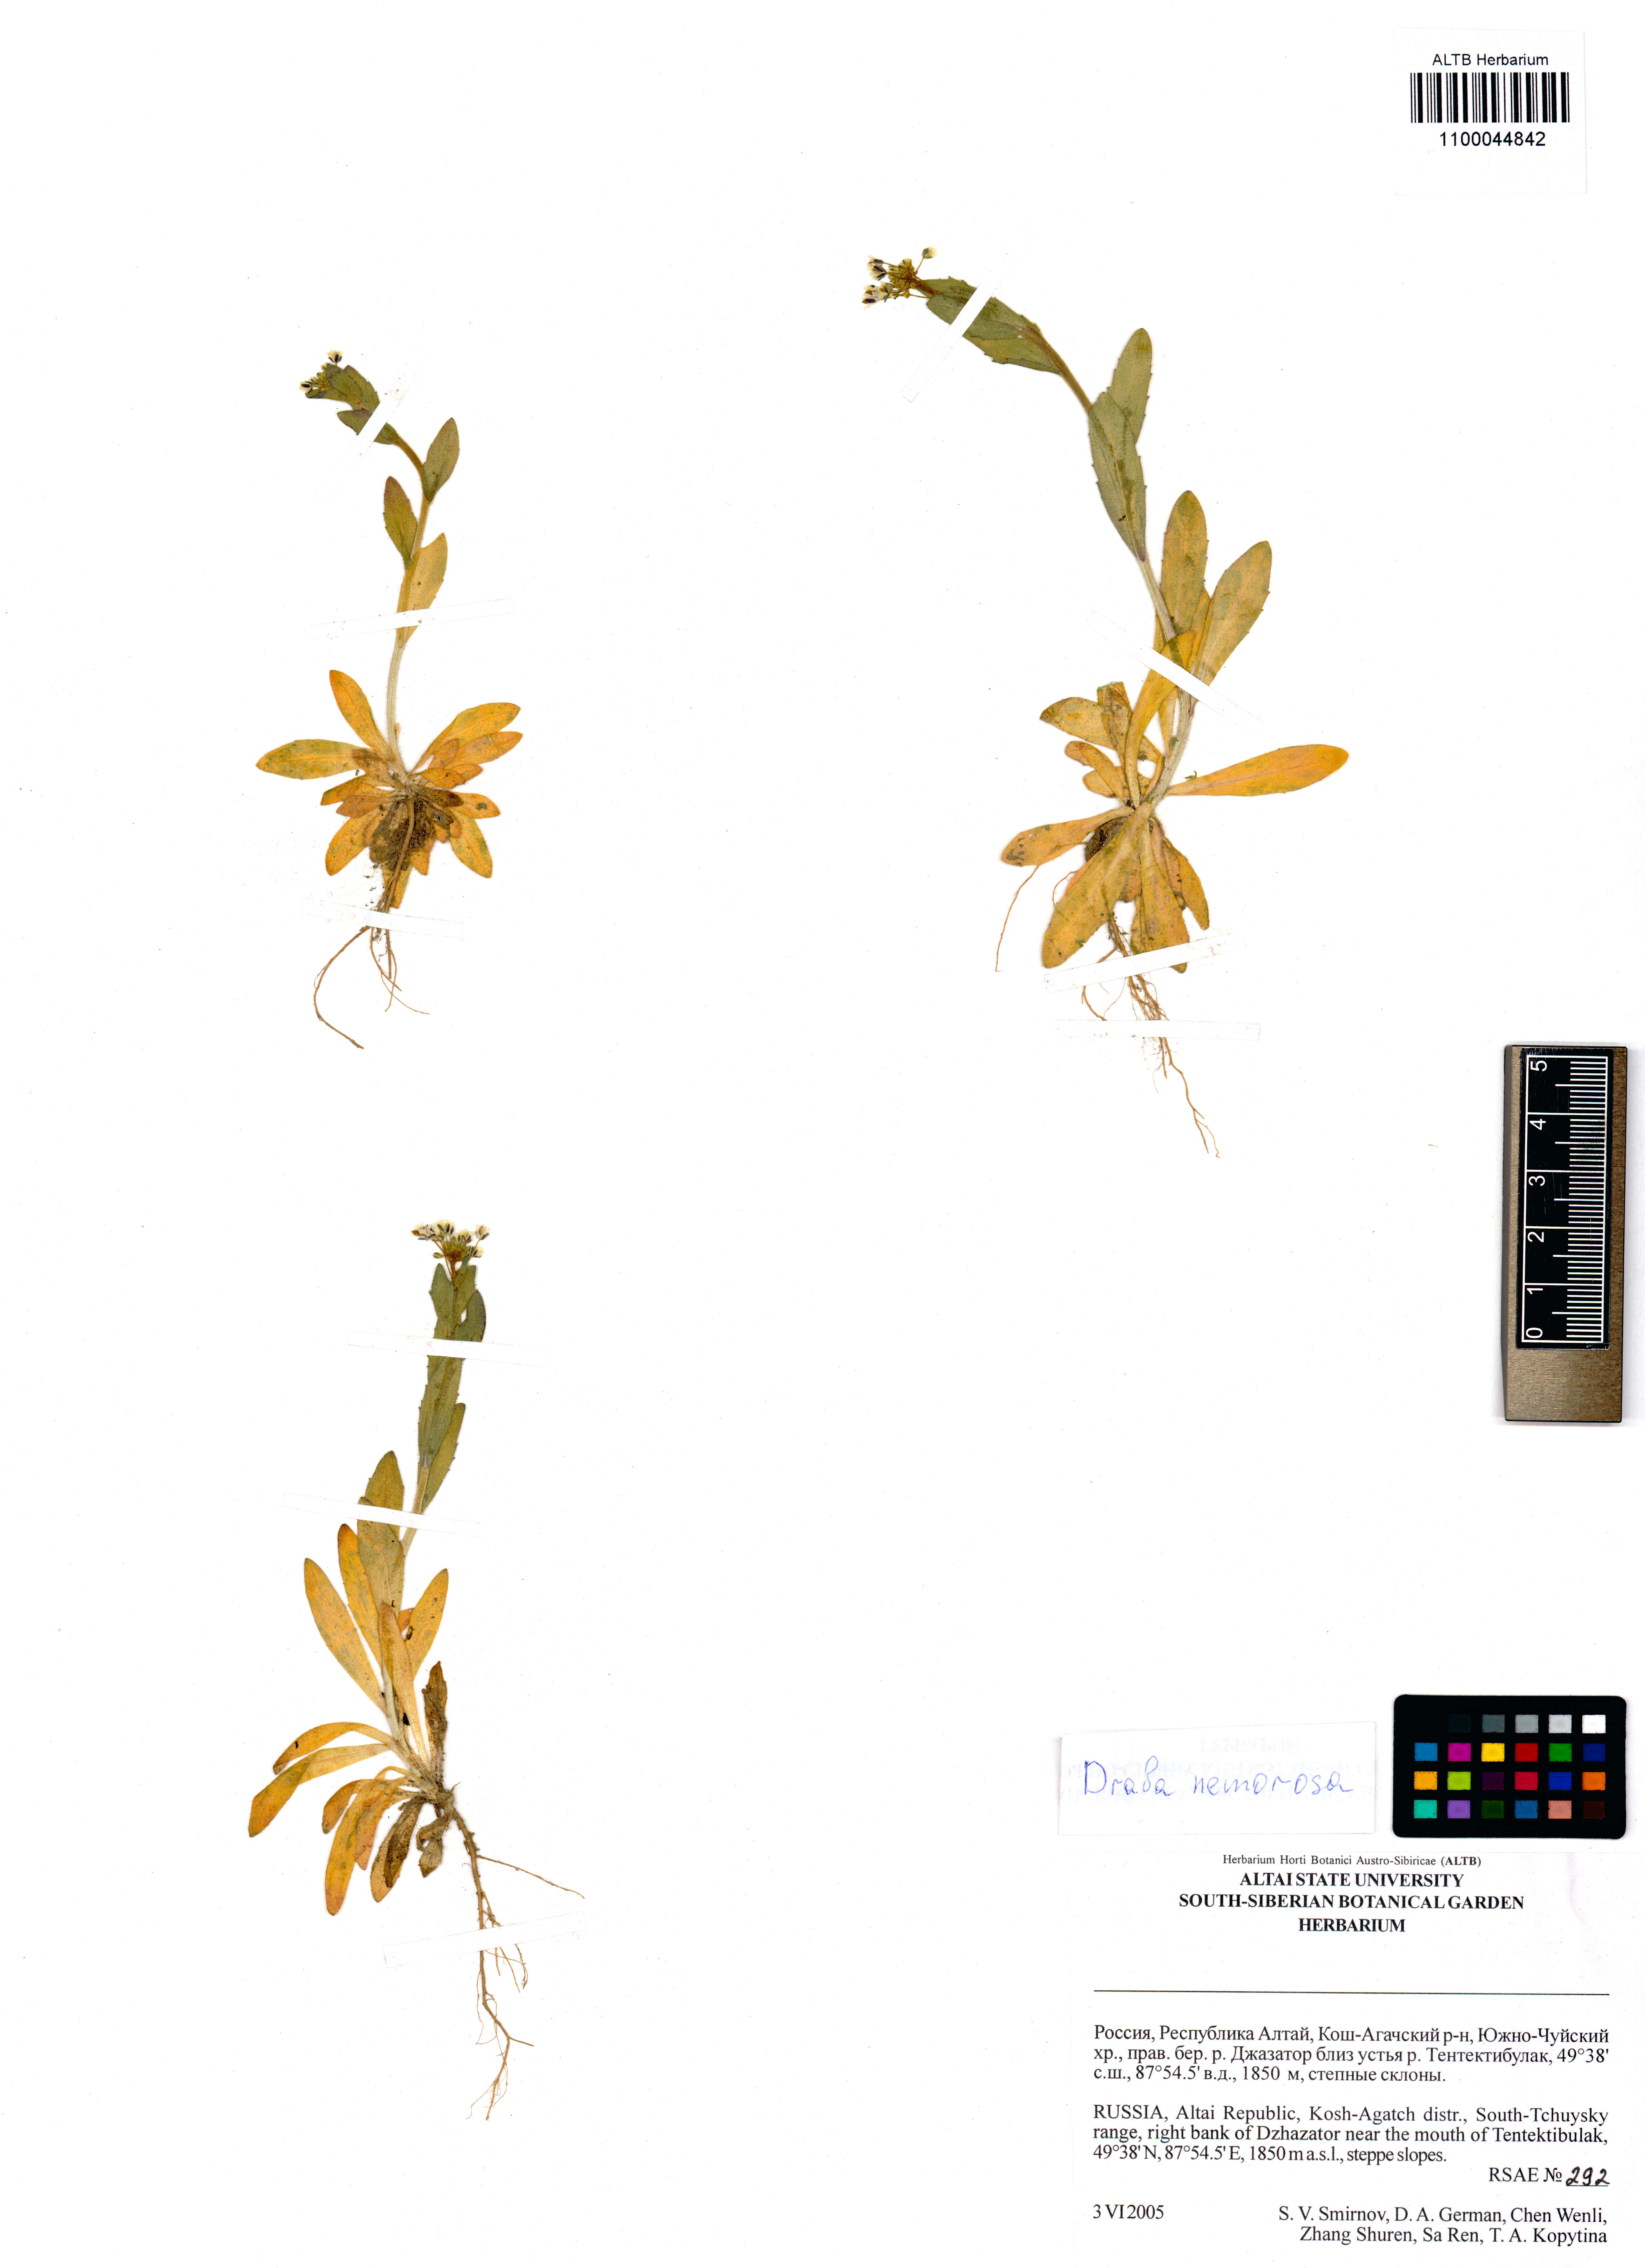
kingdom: Plantae
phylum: Tracheophyta
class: Magnoliopsida
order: Brassicales
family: Brassicaceae
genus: Draba
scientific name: Draba nemorosa
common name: Wood whitlow-grass
